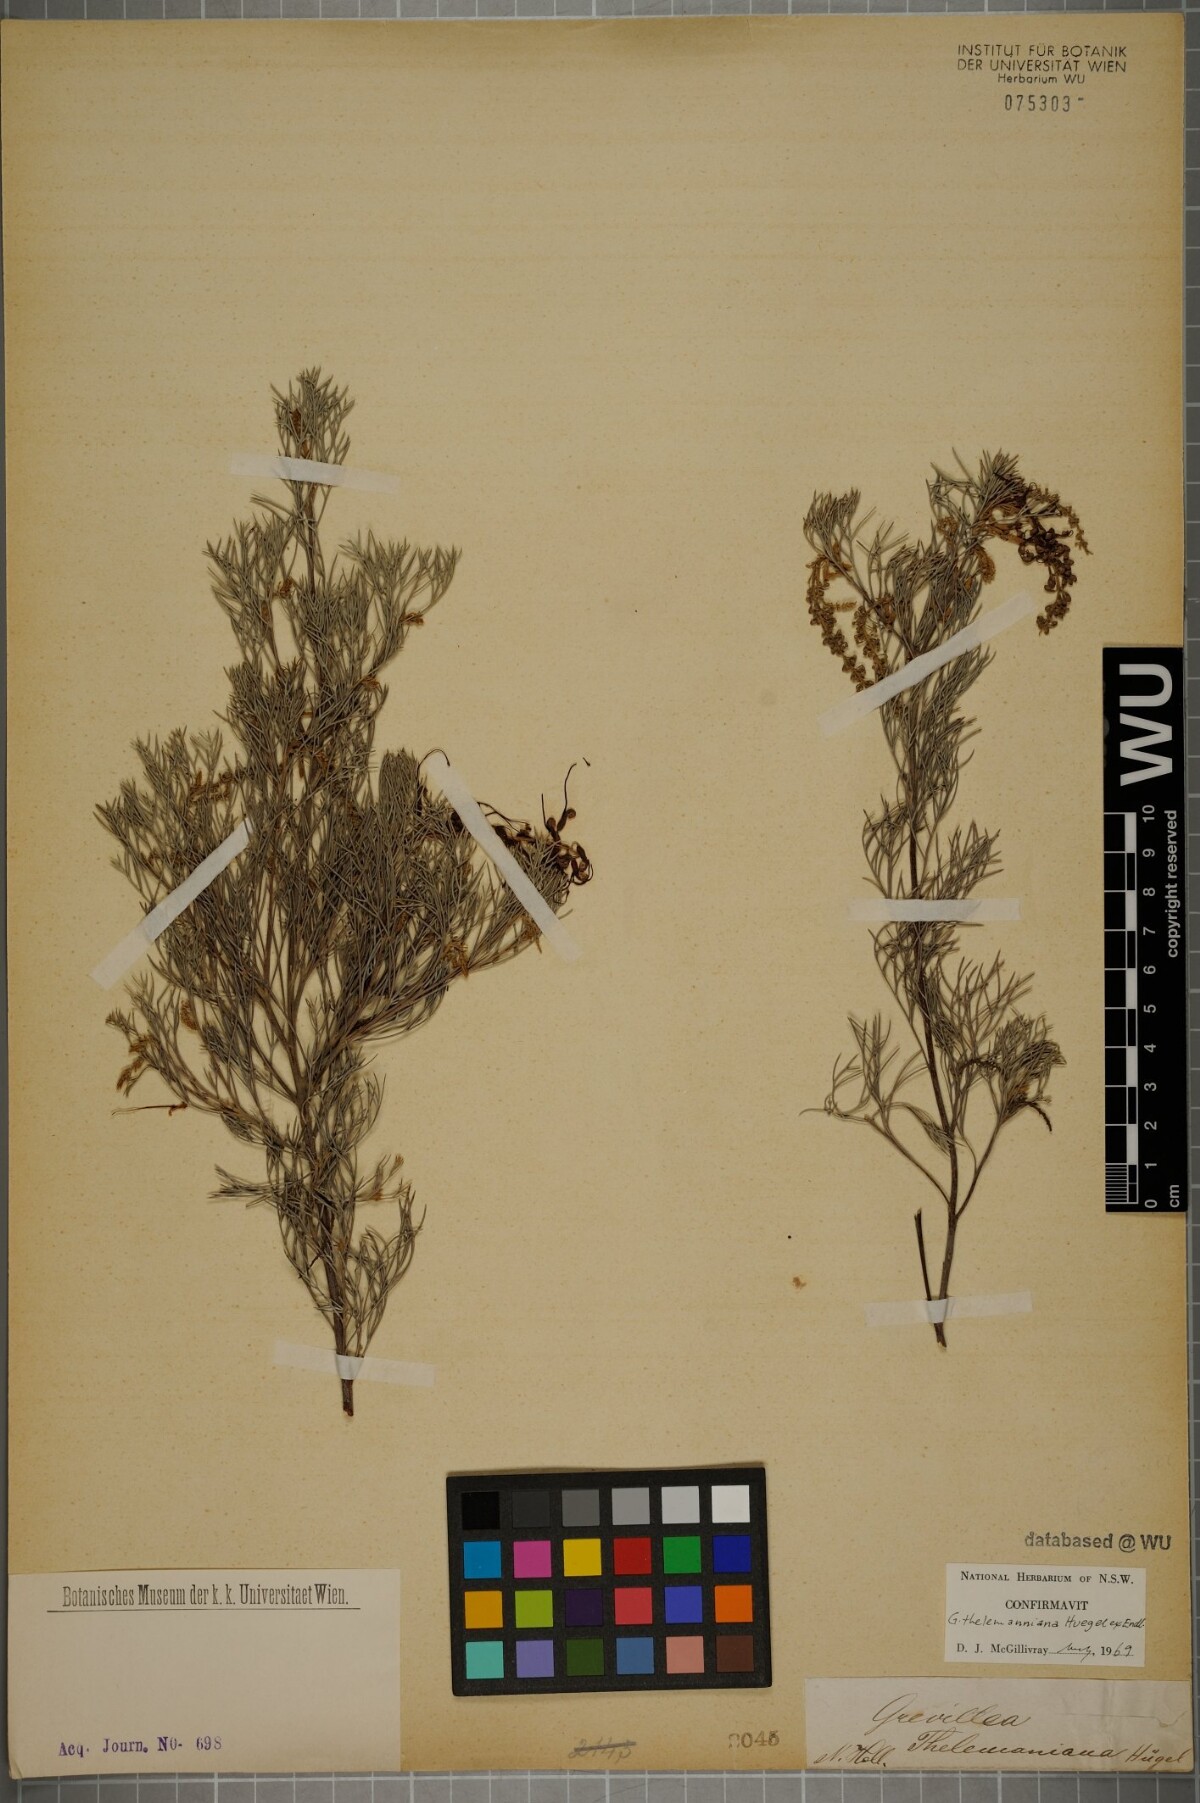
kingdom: Plantae
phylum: Tracheophyta
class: Magnoliopsida
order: Proteales
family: Proteaceae
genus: Grevillea
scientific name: Grevillea thelemanniana
